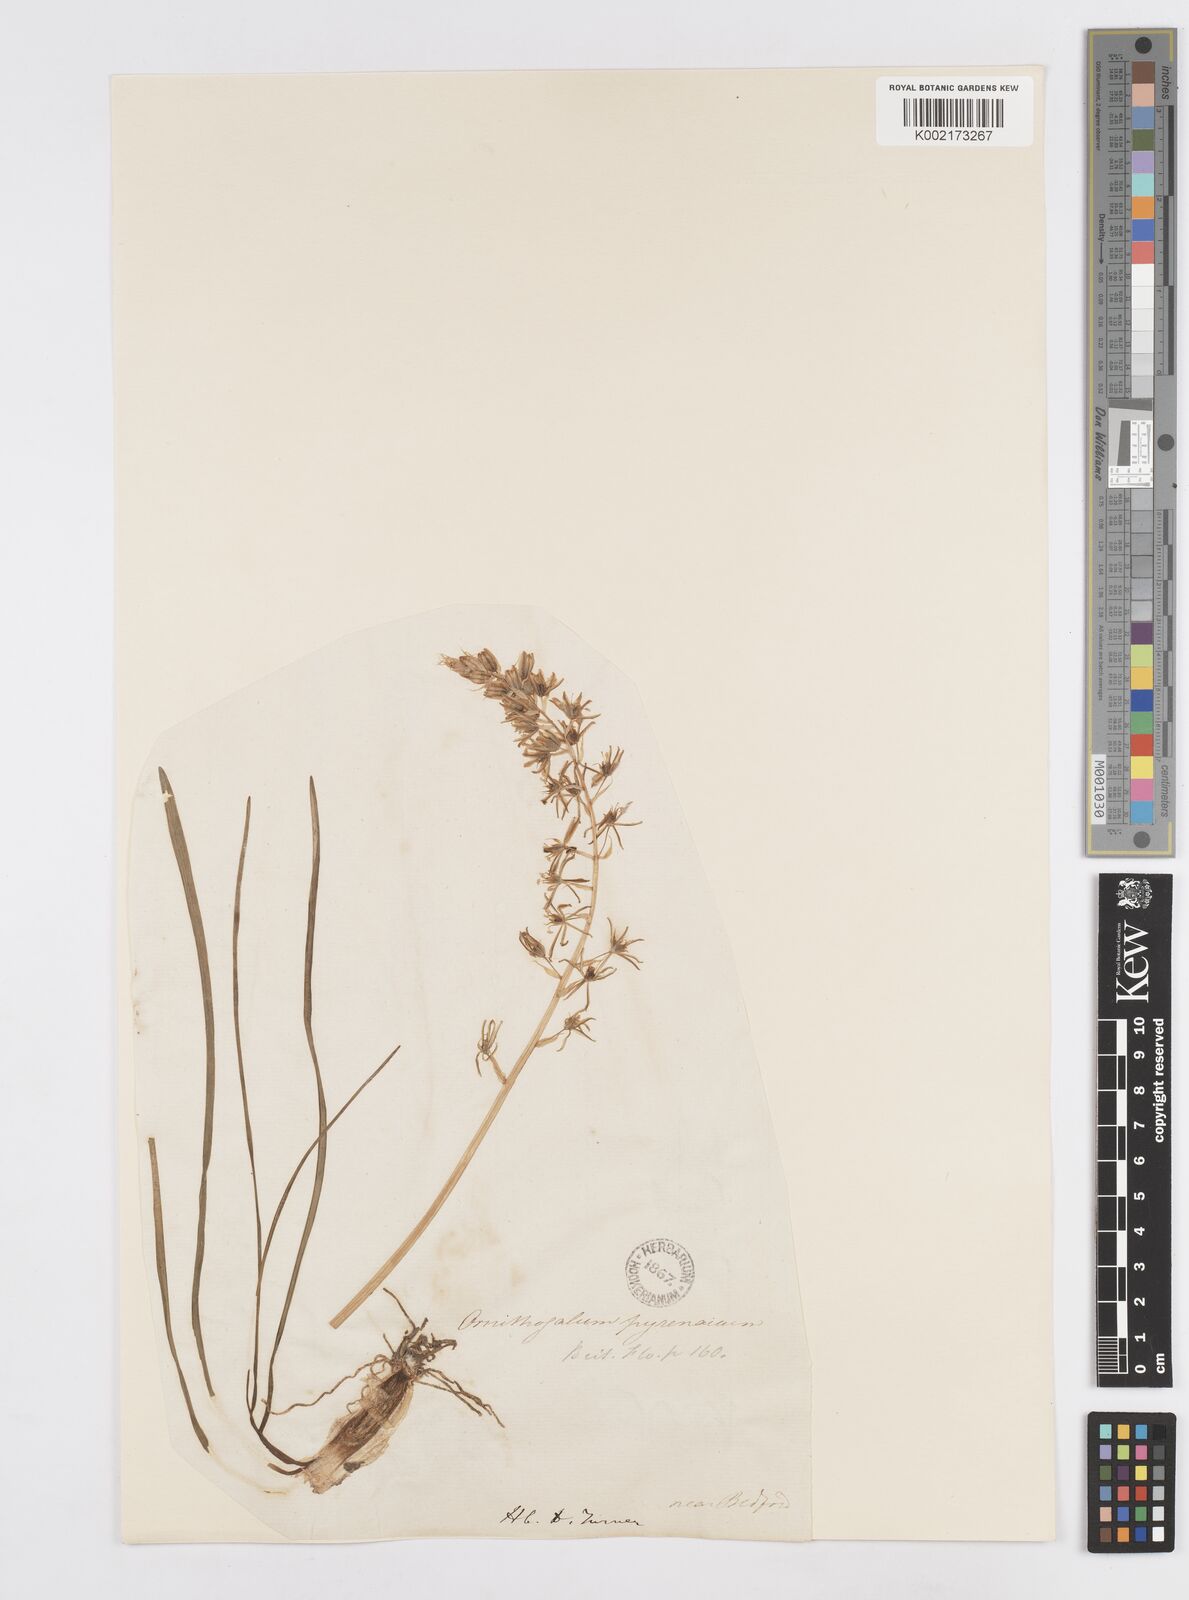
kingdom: Plantae
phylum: Tracheophyta
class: Liliopsida
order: Asparagales
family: Asparagaceae
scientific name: Asparagaceae
